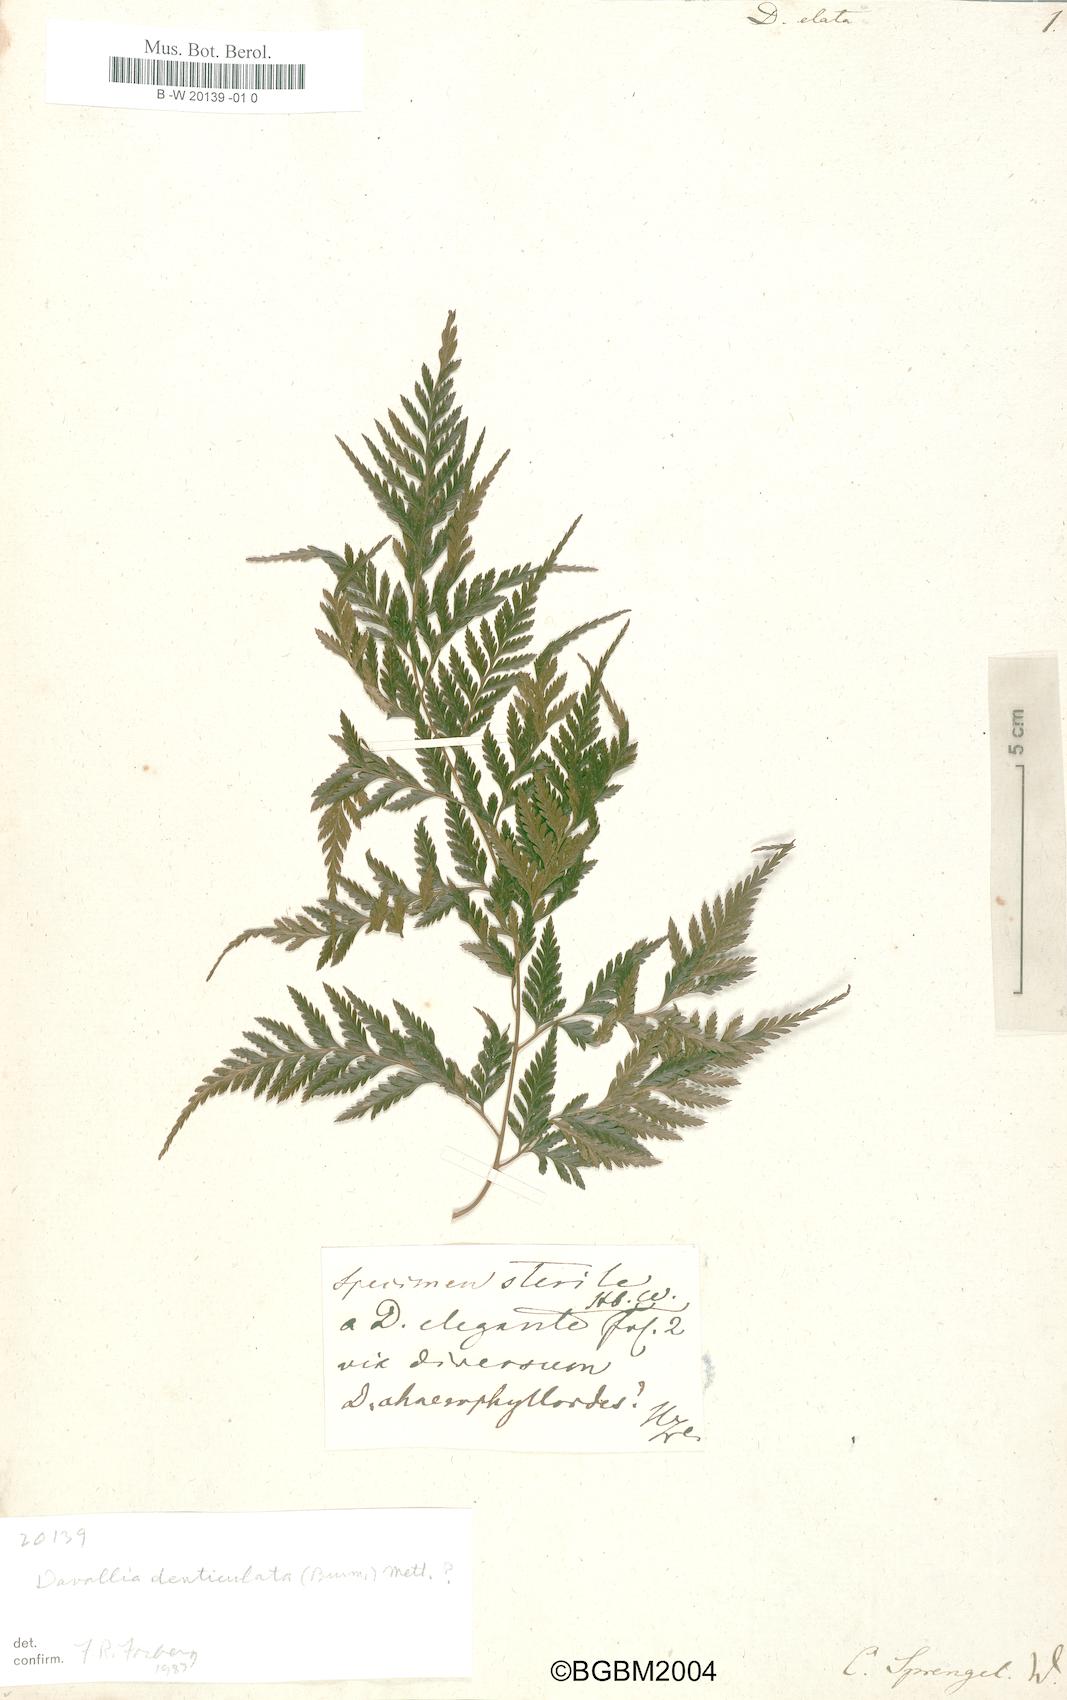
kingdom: Plantae
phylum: Tracheophyta
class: Polypodiopsida
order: Polypodiales
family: Davalliaceae
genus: Davallia
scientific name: Davallia elata
